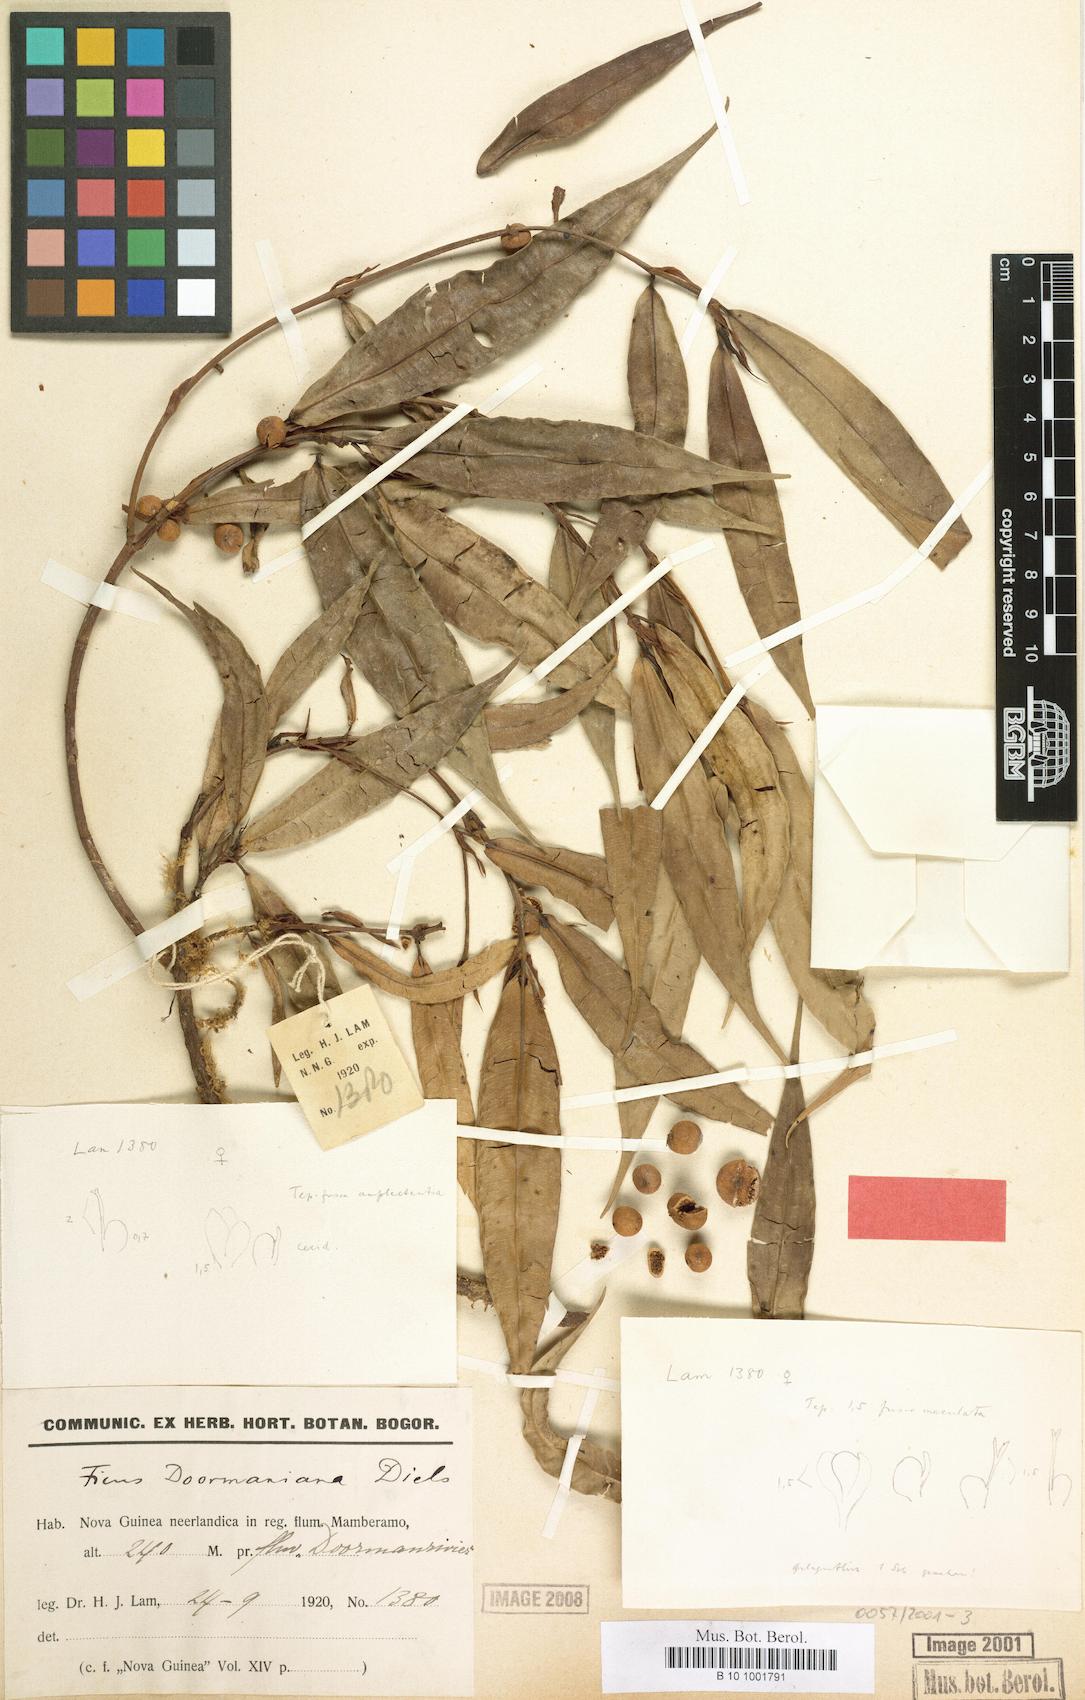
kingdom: Plantae
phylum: Tracheophyta
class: Magnoliopsida
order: Rosales
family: Moraceae
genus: Ficus
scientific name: Ficus subtrinervia
